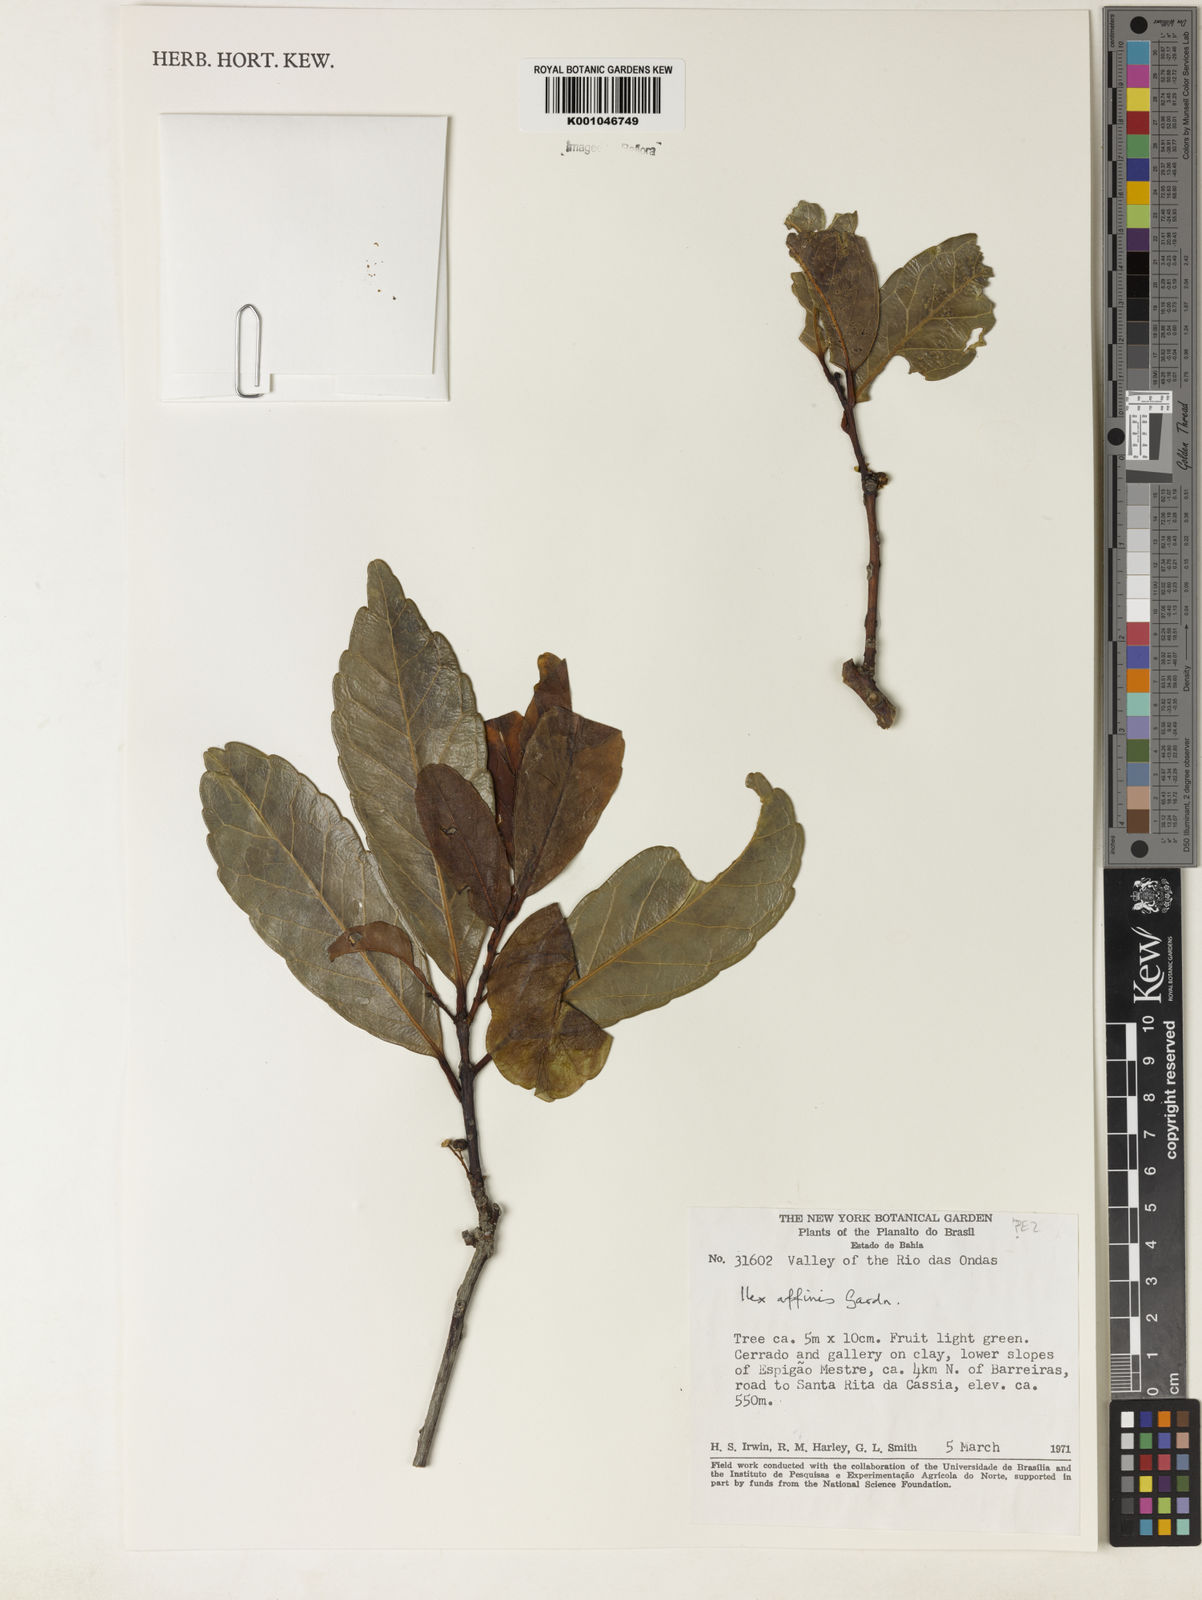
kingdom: Plantae
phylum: Tracheophyta
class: Magnoliopsida
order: Aquifoliales
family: Aquifoliaceae
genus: Ilex
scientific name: Ilex affinis
